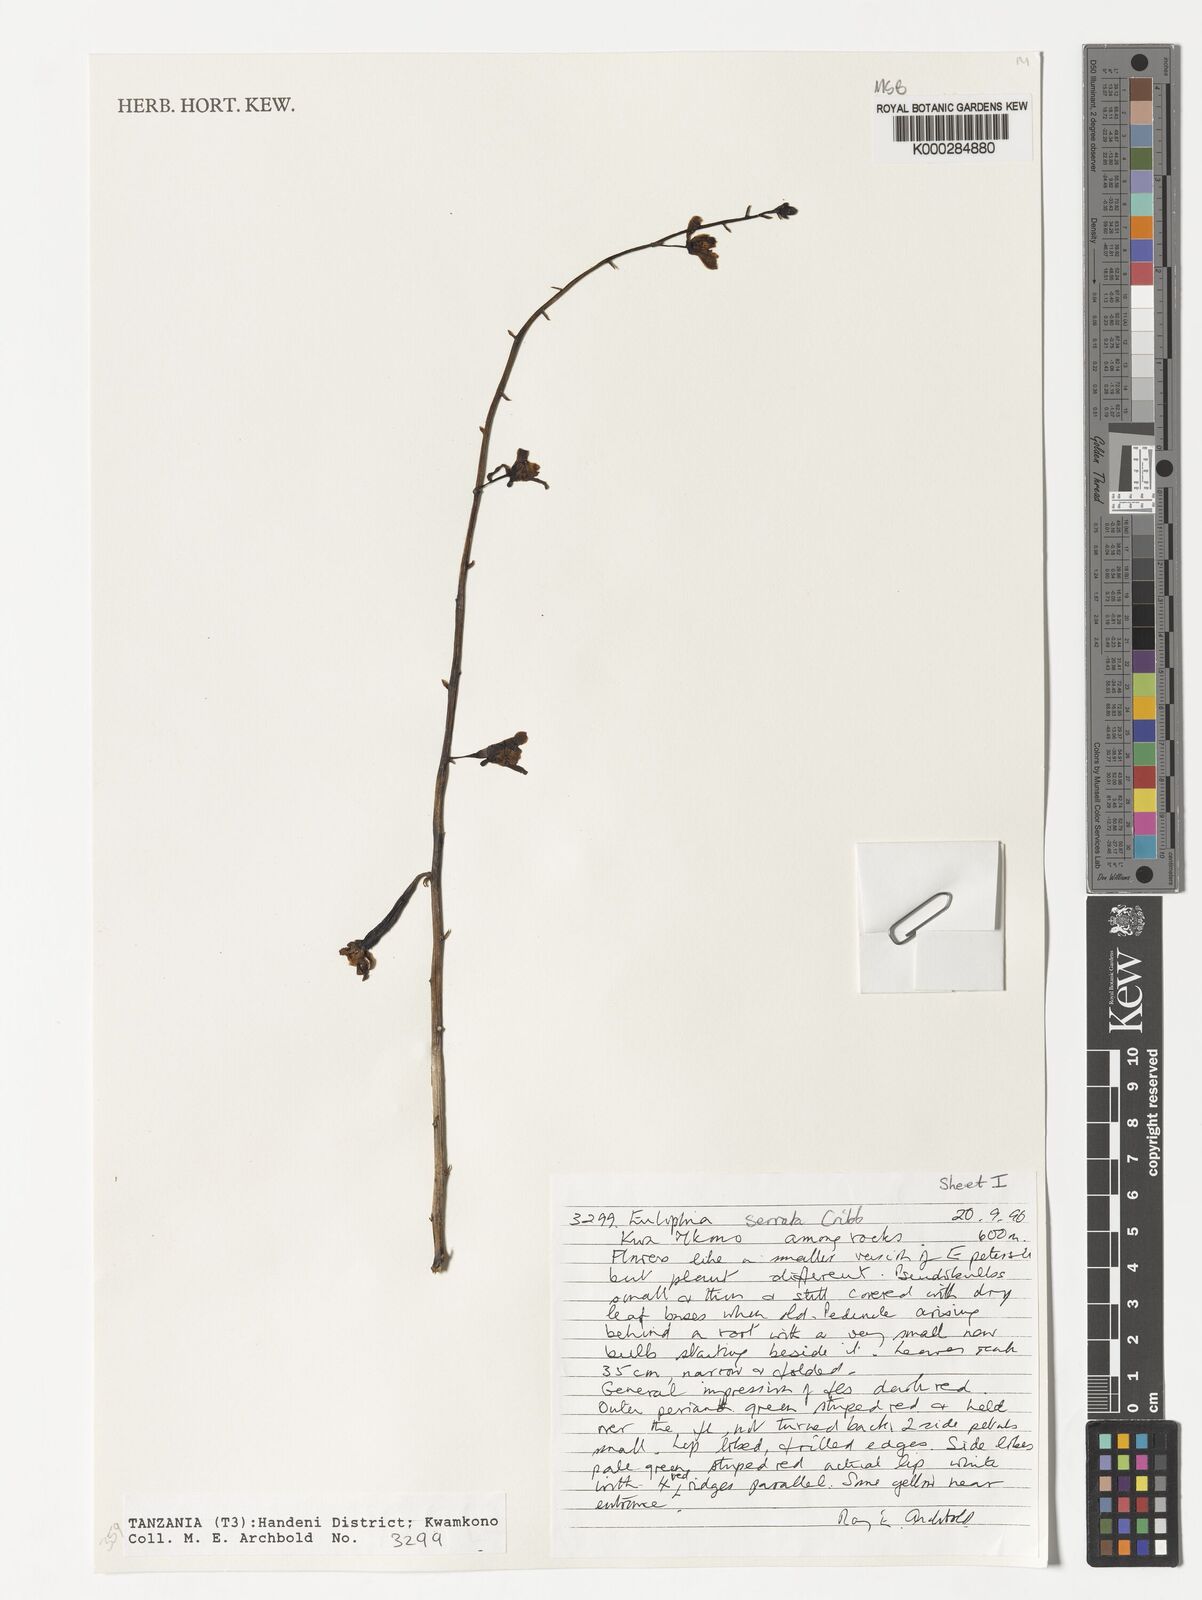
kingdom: Plantae
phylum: Tracheophyta
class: Liliopsida
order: Asparagales
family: Orchidaceae
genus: Eulophia
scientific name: Eulophia stricta
